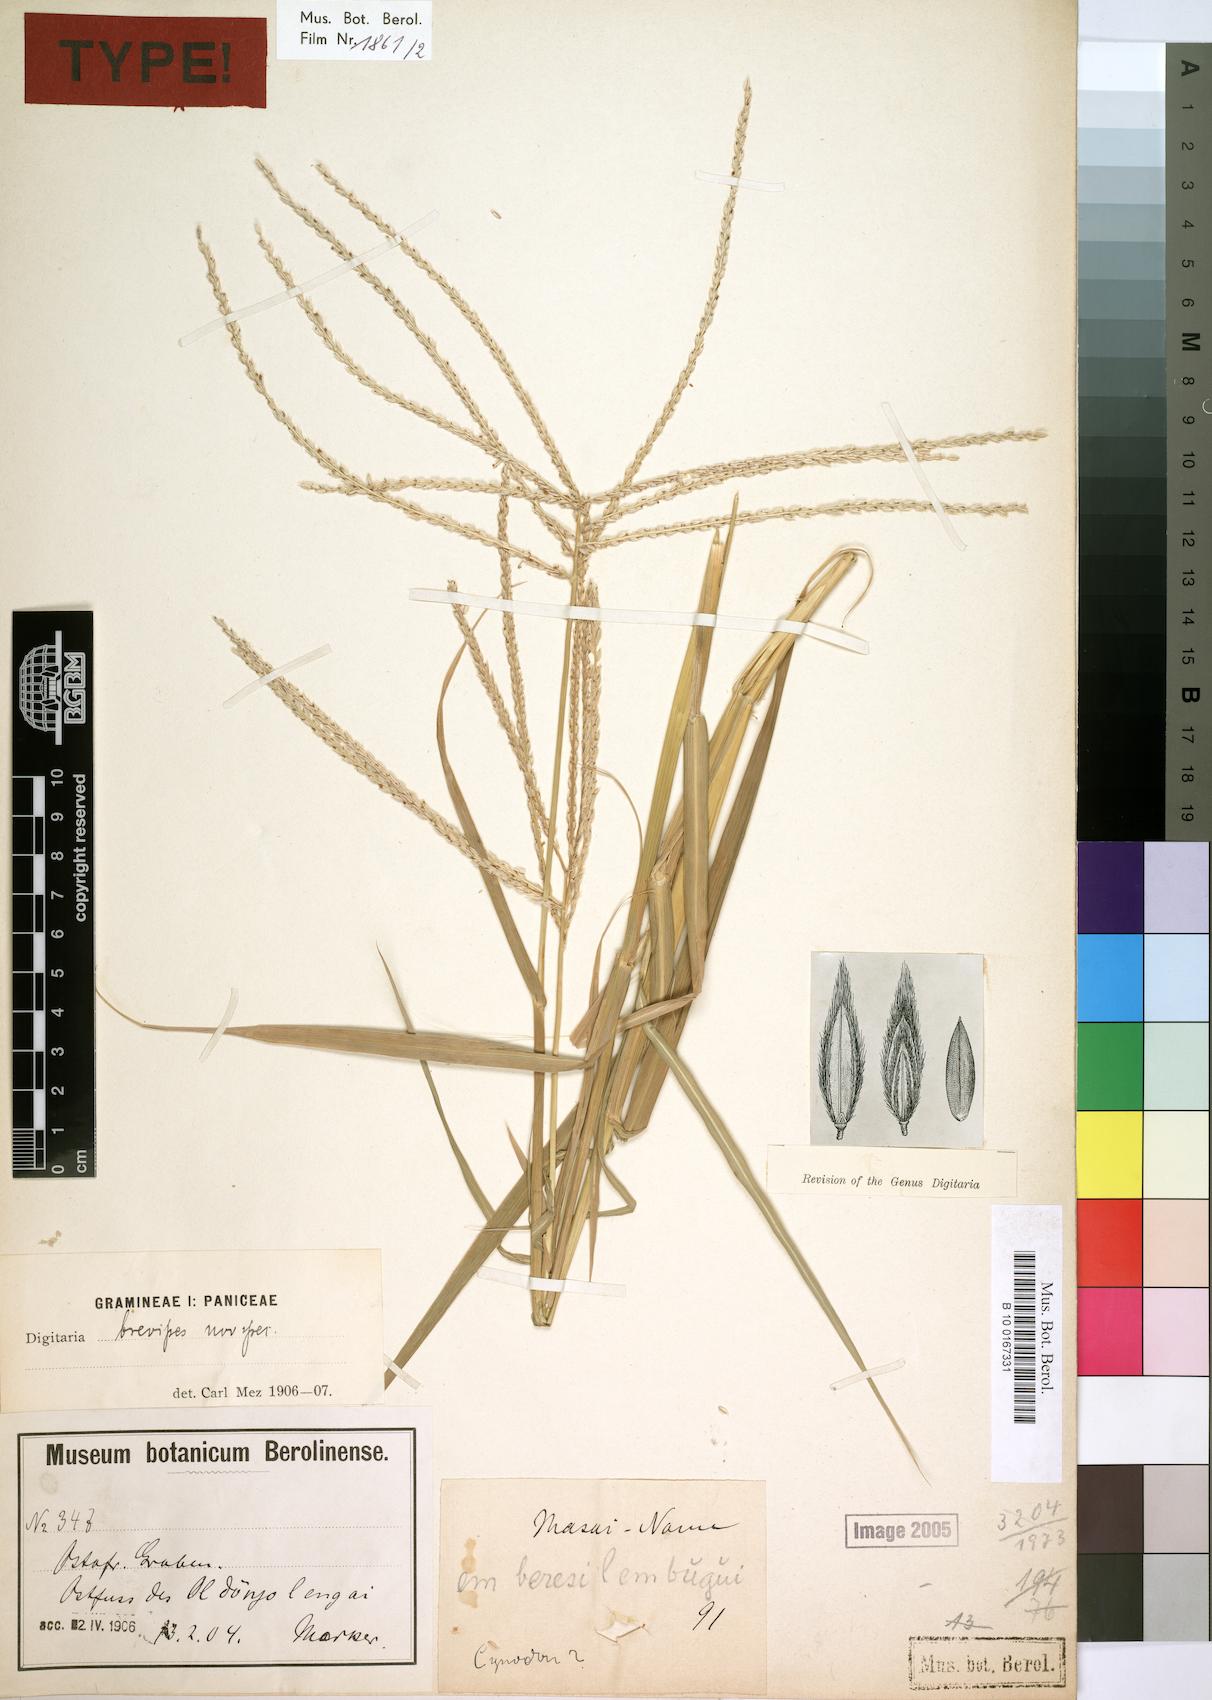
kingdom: Plantae
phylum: Tracheophyta
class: Liliopsida
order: Poales
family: Poaceae
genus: Digitaria
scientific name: Digitaria macroblephara
